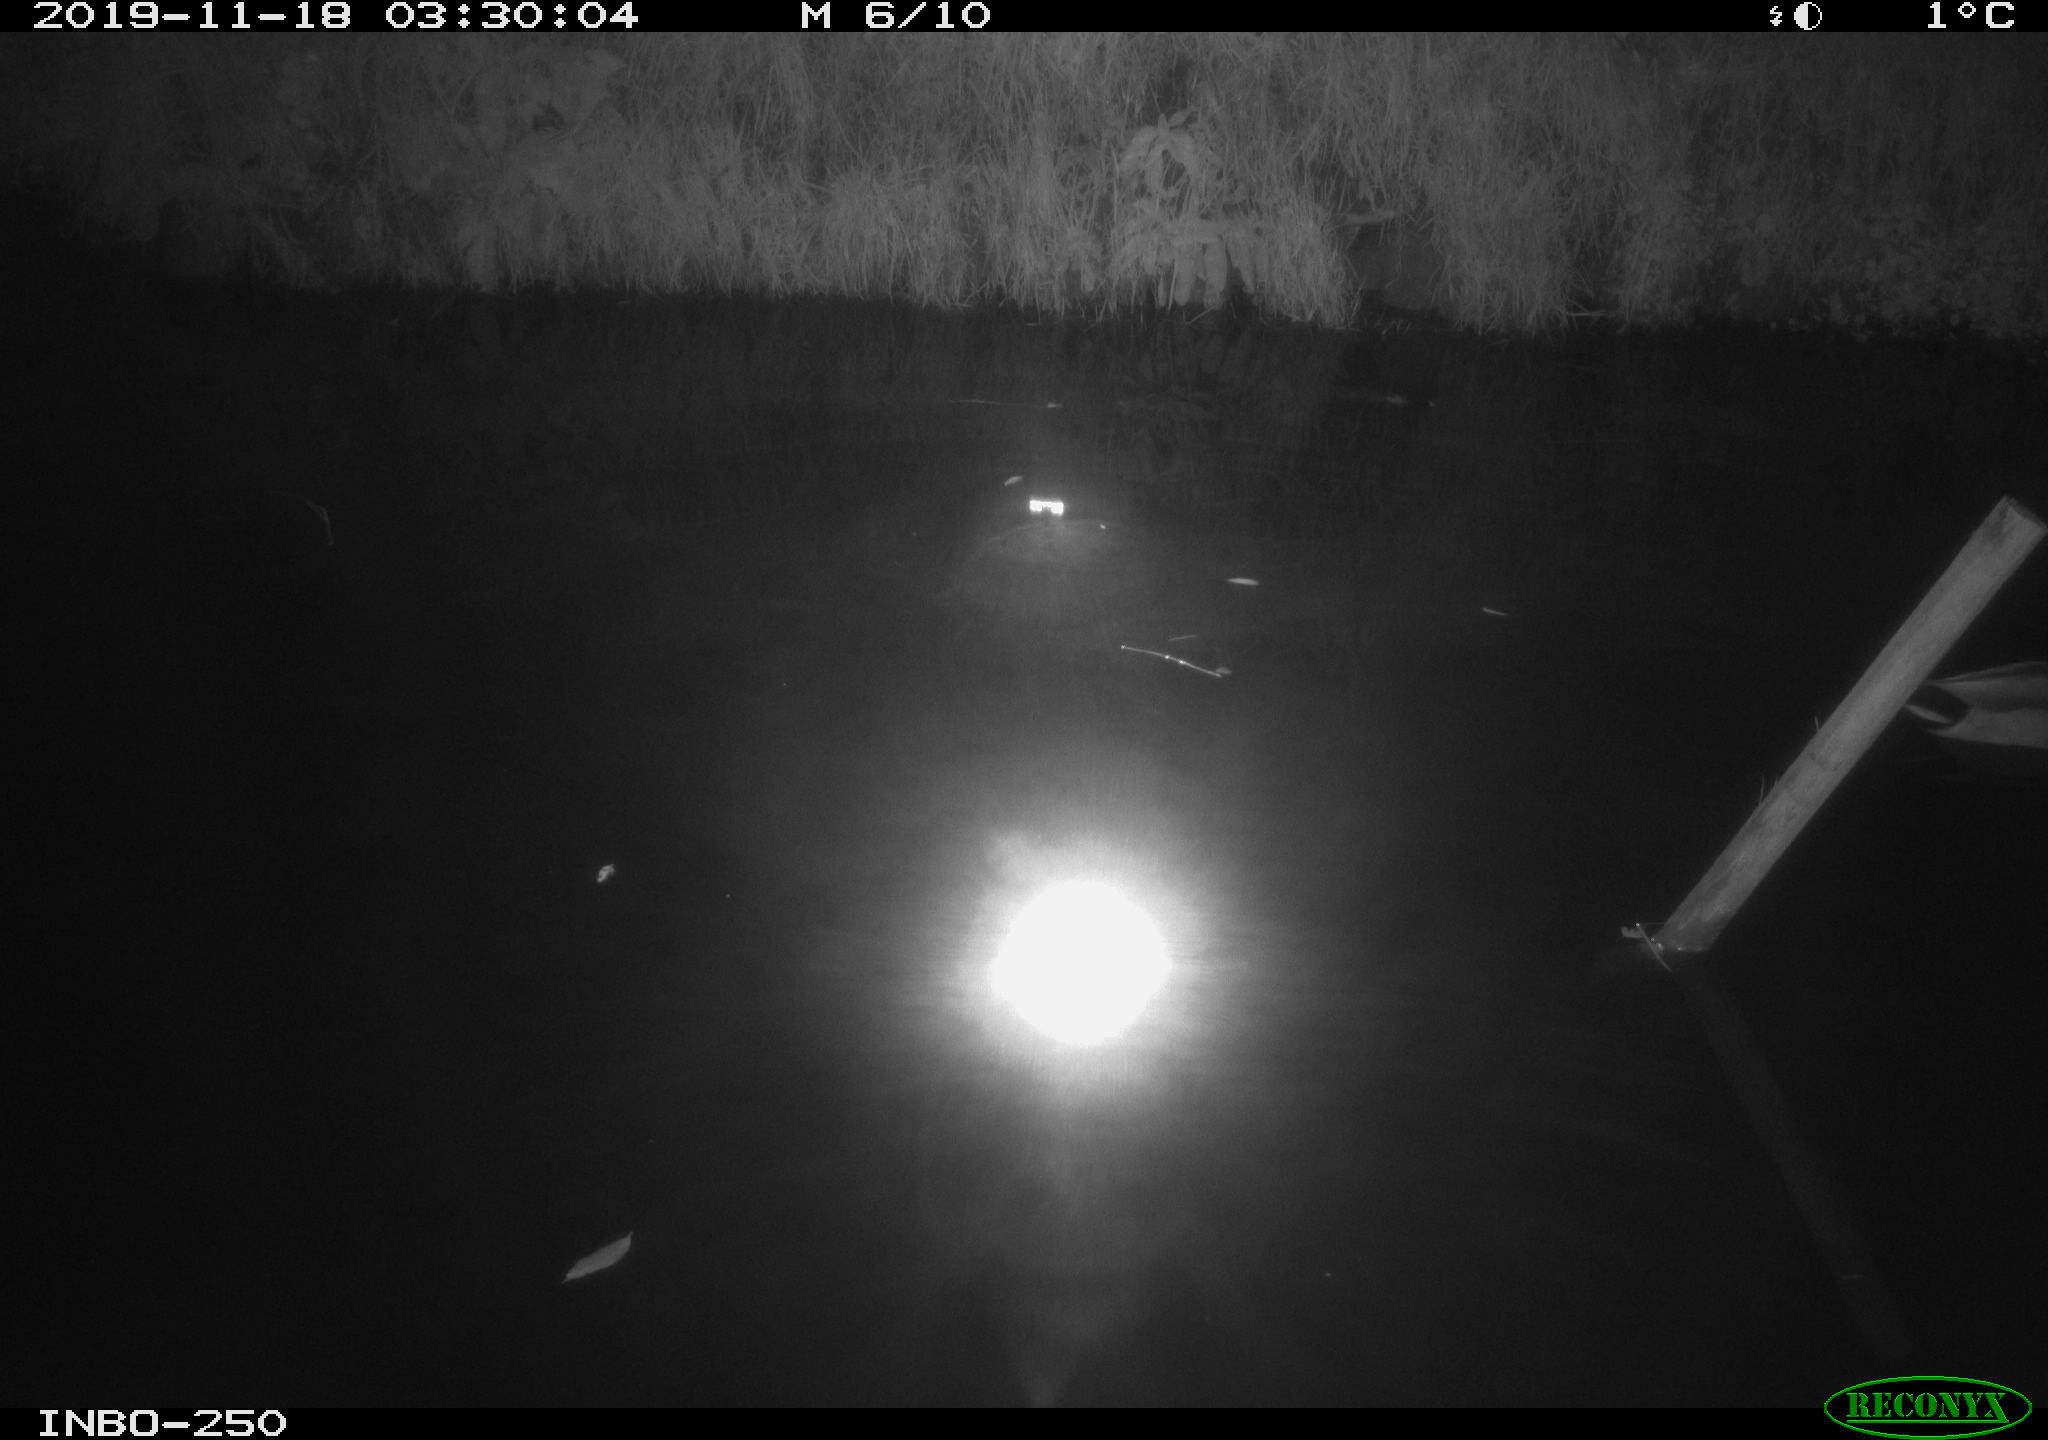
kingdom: Animalia
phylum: Chordata
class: Aves
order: Anseriformes
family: Anatidae
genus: Anas
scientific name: Anas platyrhynchos
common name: Mallard
